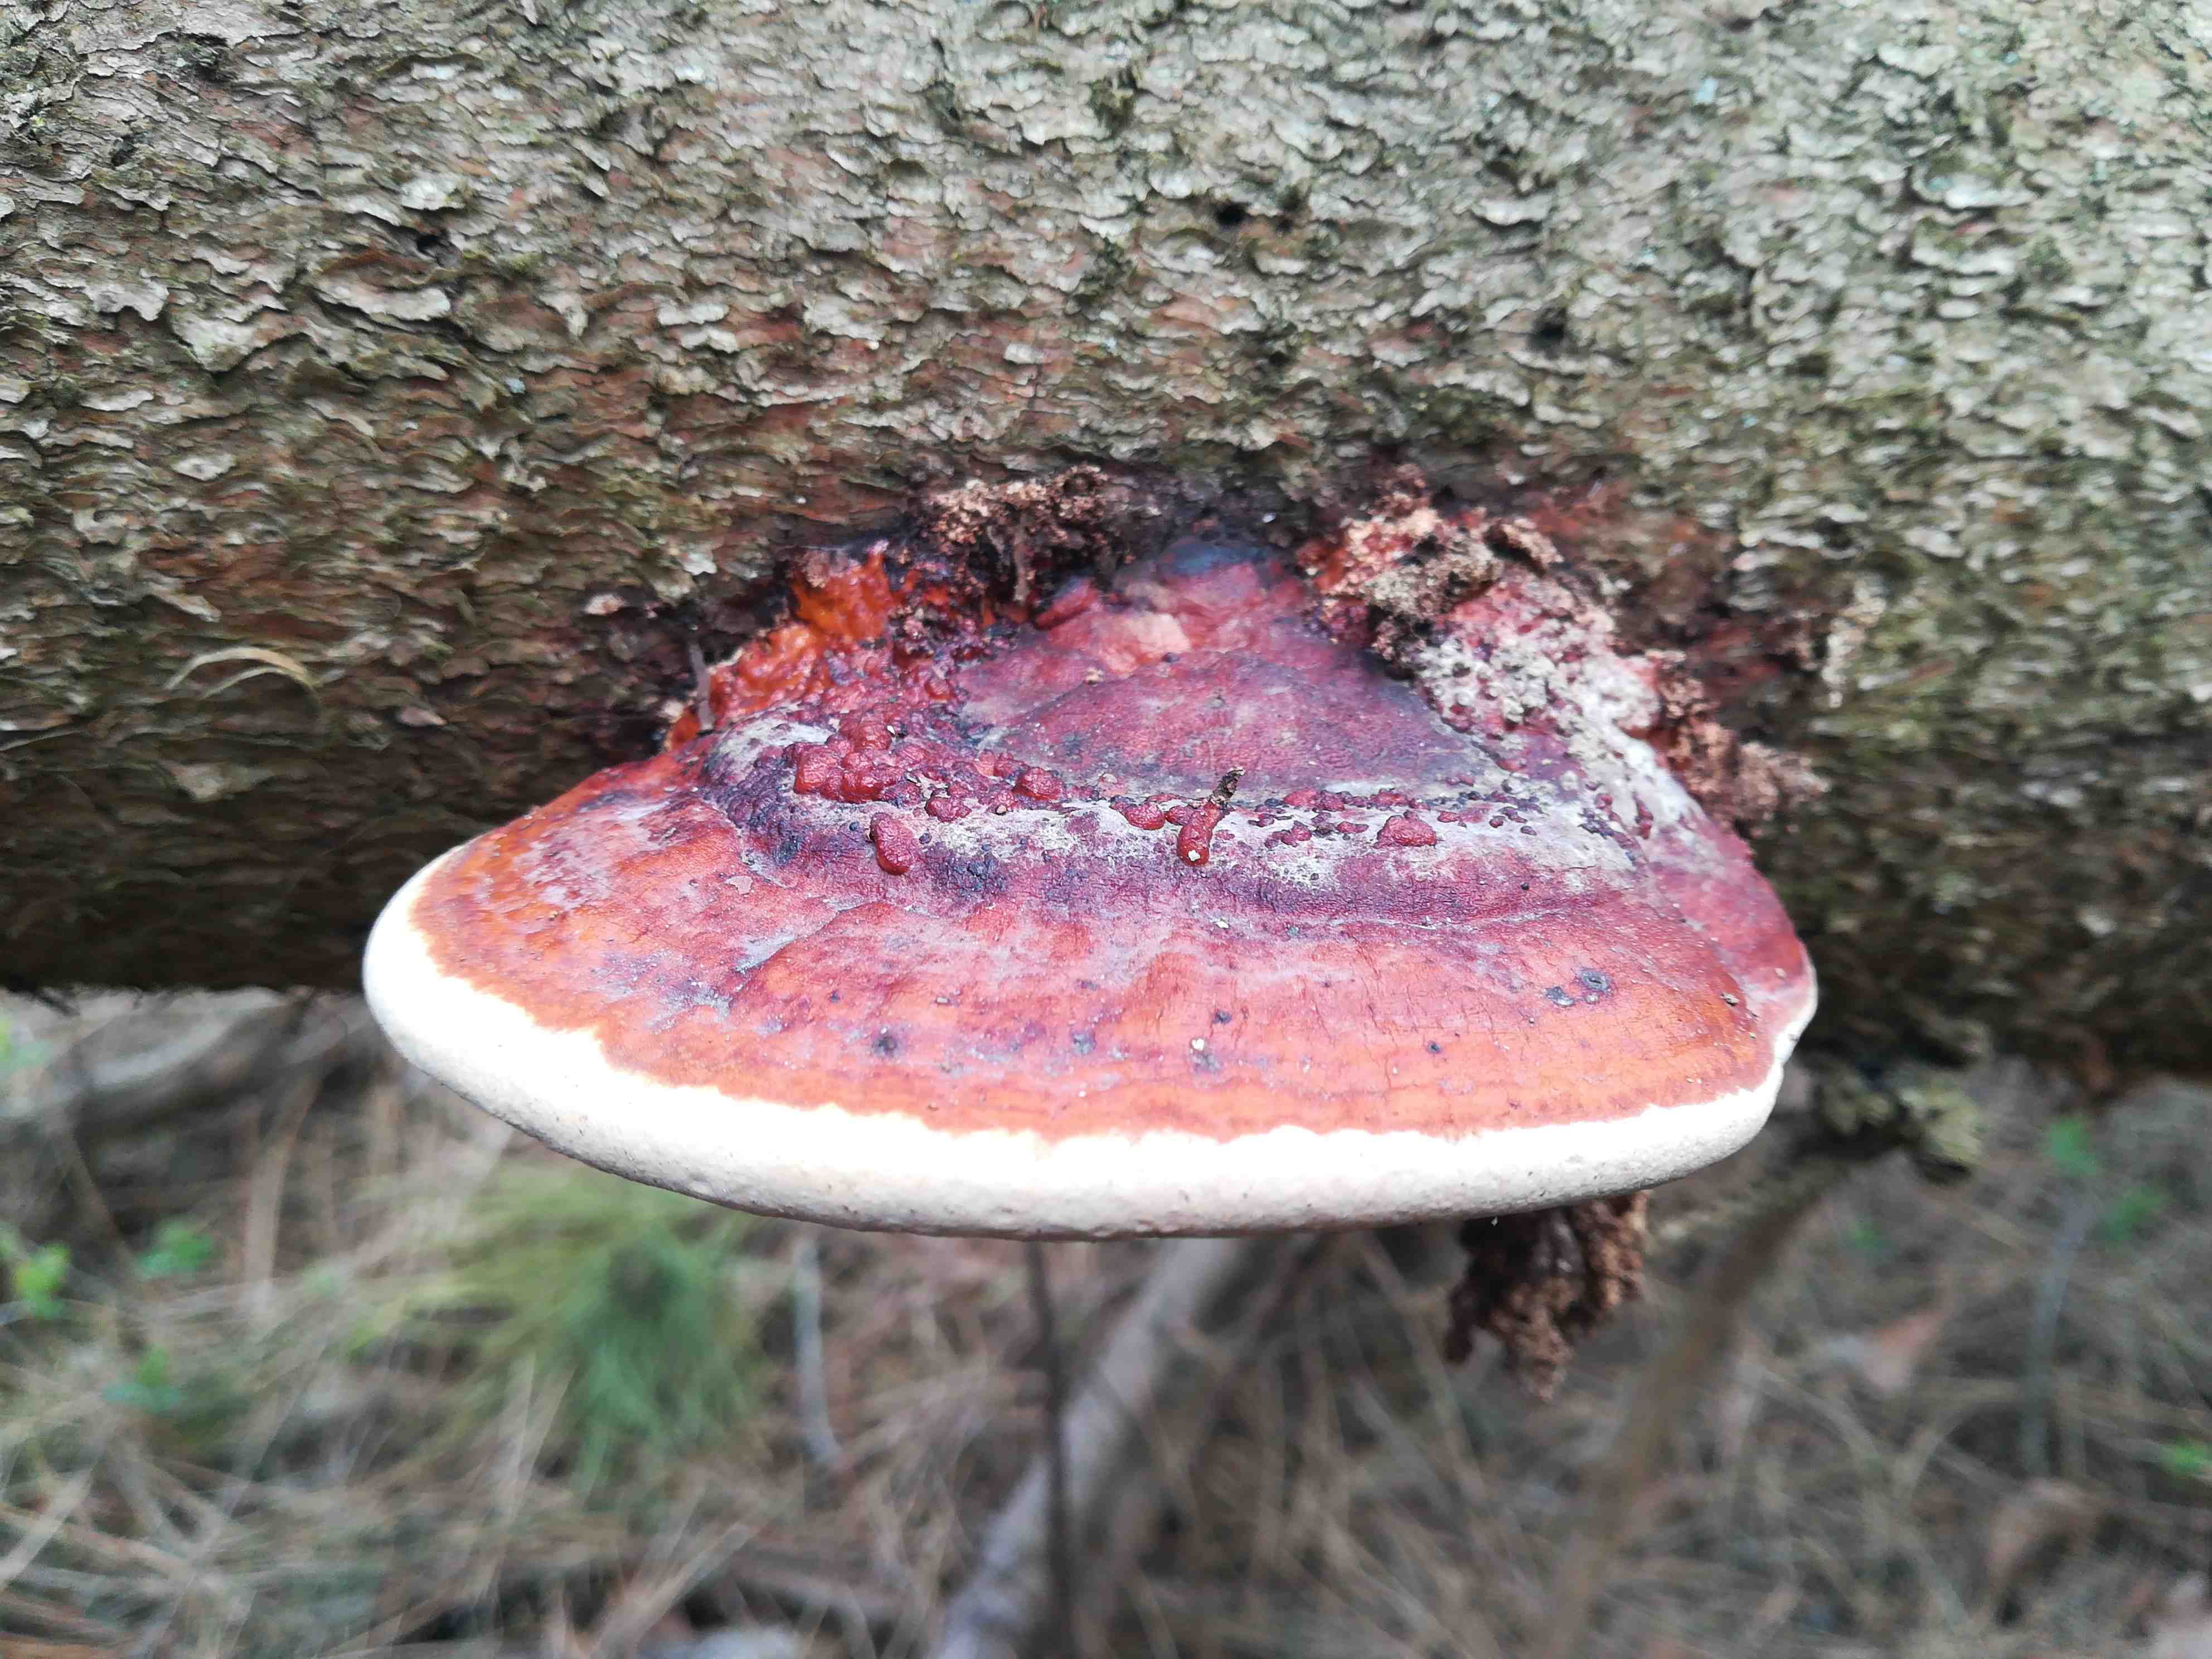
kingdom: Fungi
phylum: Basidiomycota
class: Agaricomycetes
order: Polyporales
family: Fomitopsidaceae
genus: Fomitopsis
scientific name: Fomitopsis pinicola
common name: randbæltet hovporesvamp
